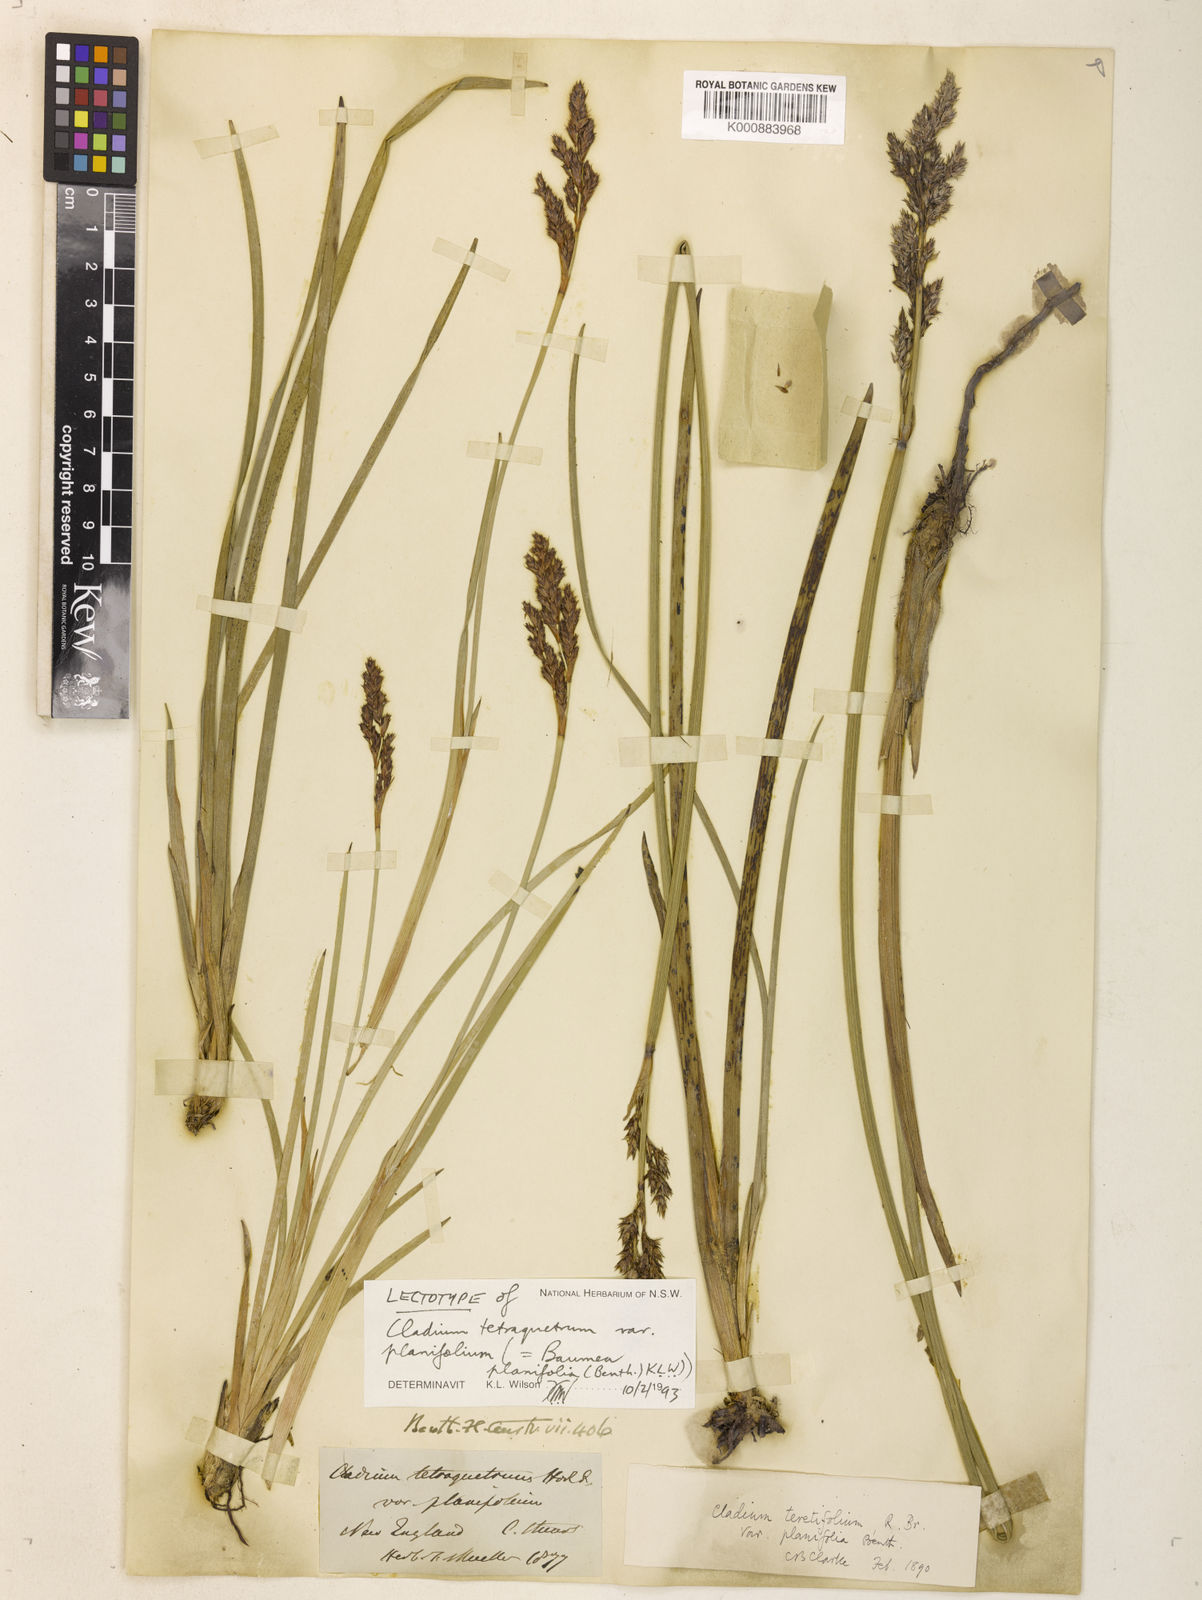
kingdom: Plantae
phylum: Tracheophyta
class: Liliopsida
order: Poales
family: Cyperaceae
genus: Machaerina
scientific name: Machaerina teretifolia
